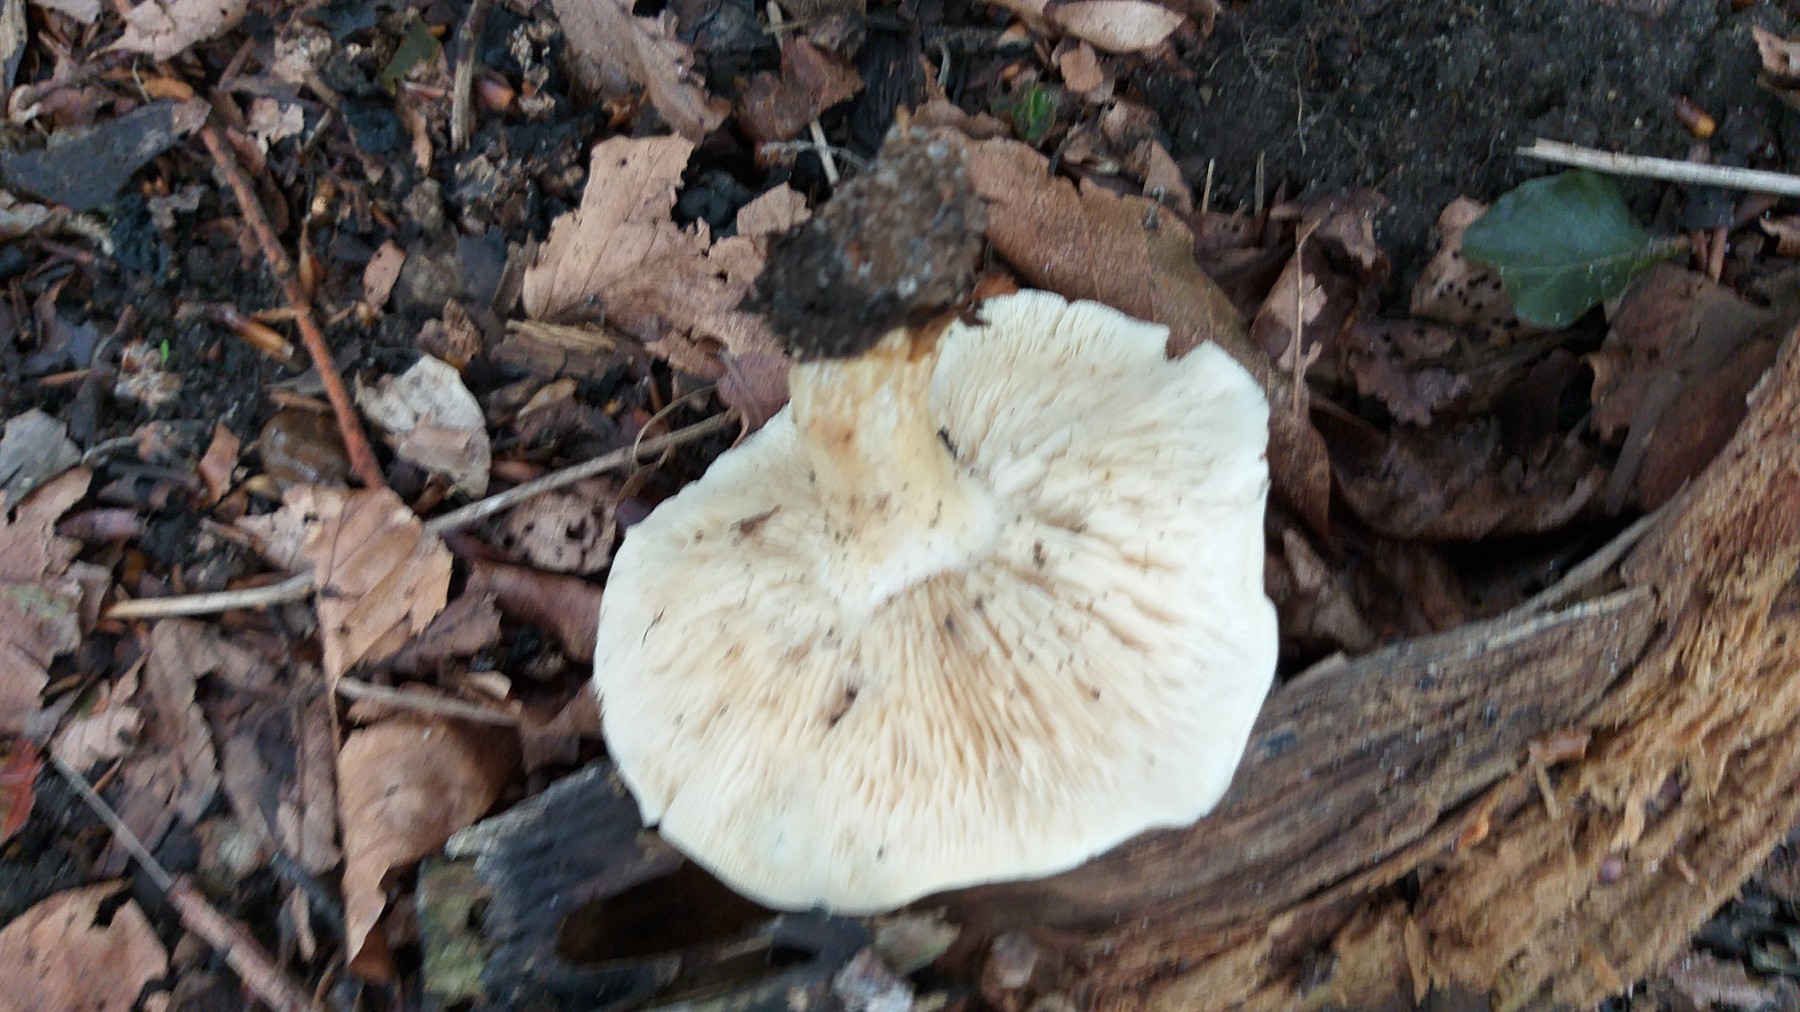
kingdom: Fungi
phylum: Basidiomycota
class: Agaricomycetes
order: Agaricales
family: Lyophyllaceae
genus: Calocybe
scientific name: Calocybe gambosa
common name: vårmusseron
